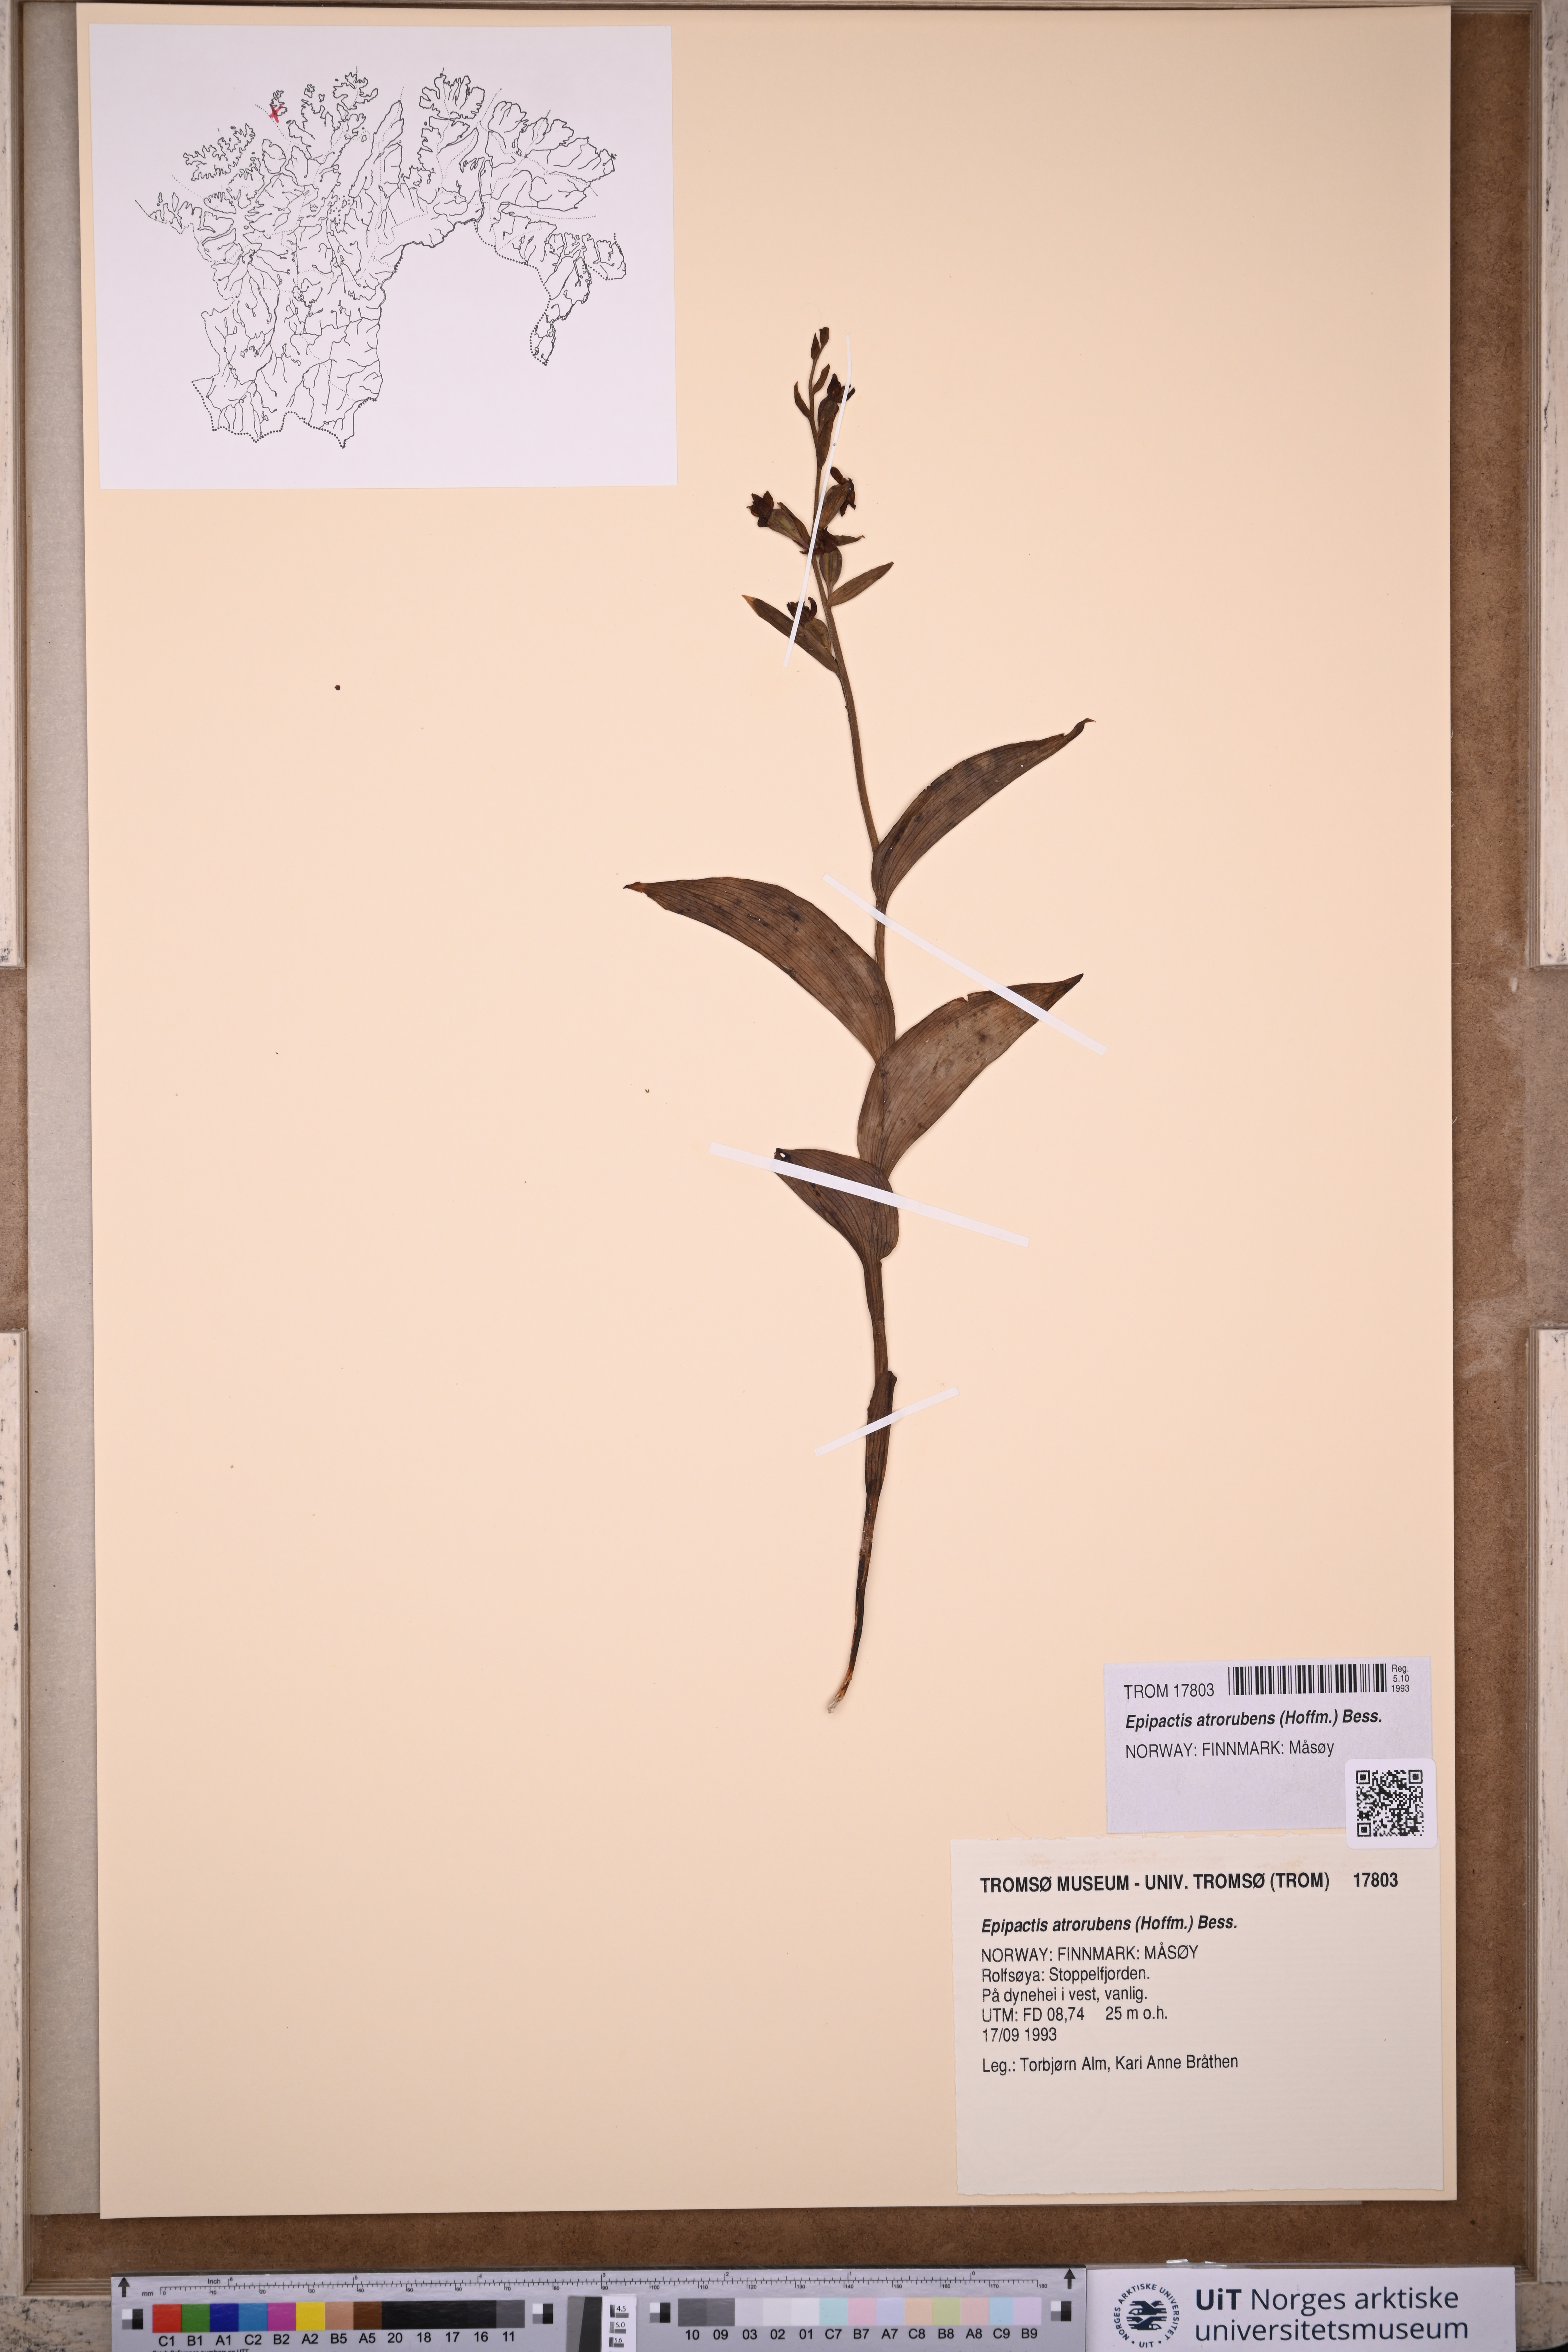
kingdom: Plantae
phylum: Tracheophyta
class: Liliopsida
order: Asparagales
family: Orchidaceae
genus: Epipactis
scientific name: Epipactis atrorubens
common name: Dark-red helleborine
